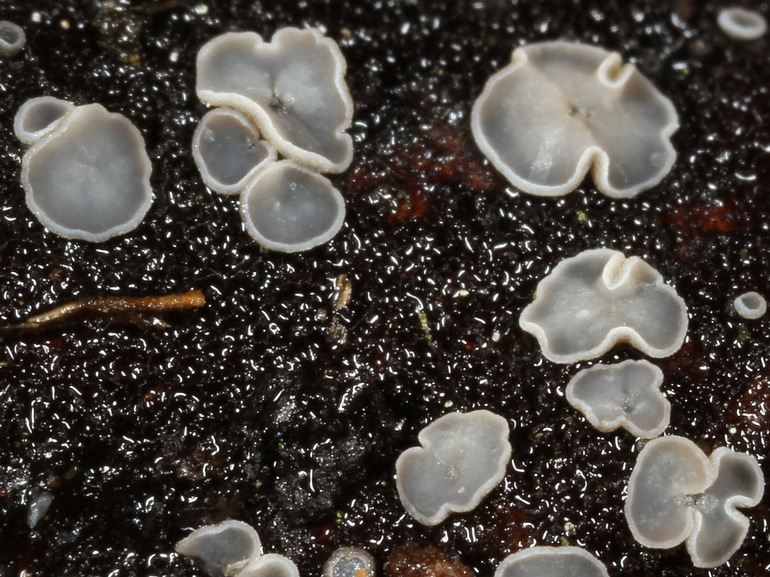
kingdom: Fungi
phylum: Ascomycota
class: Leotiomycetes
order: Helotiales
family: Mollisiaceae
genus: Tapesia
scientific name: Tapesia fusca
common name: tæppe-gråskive
